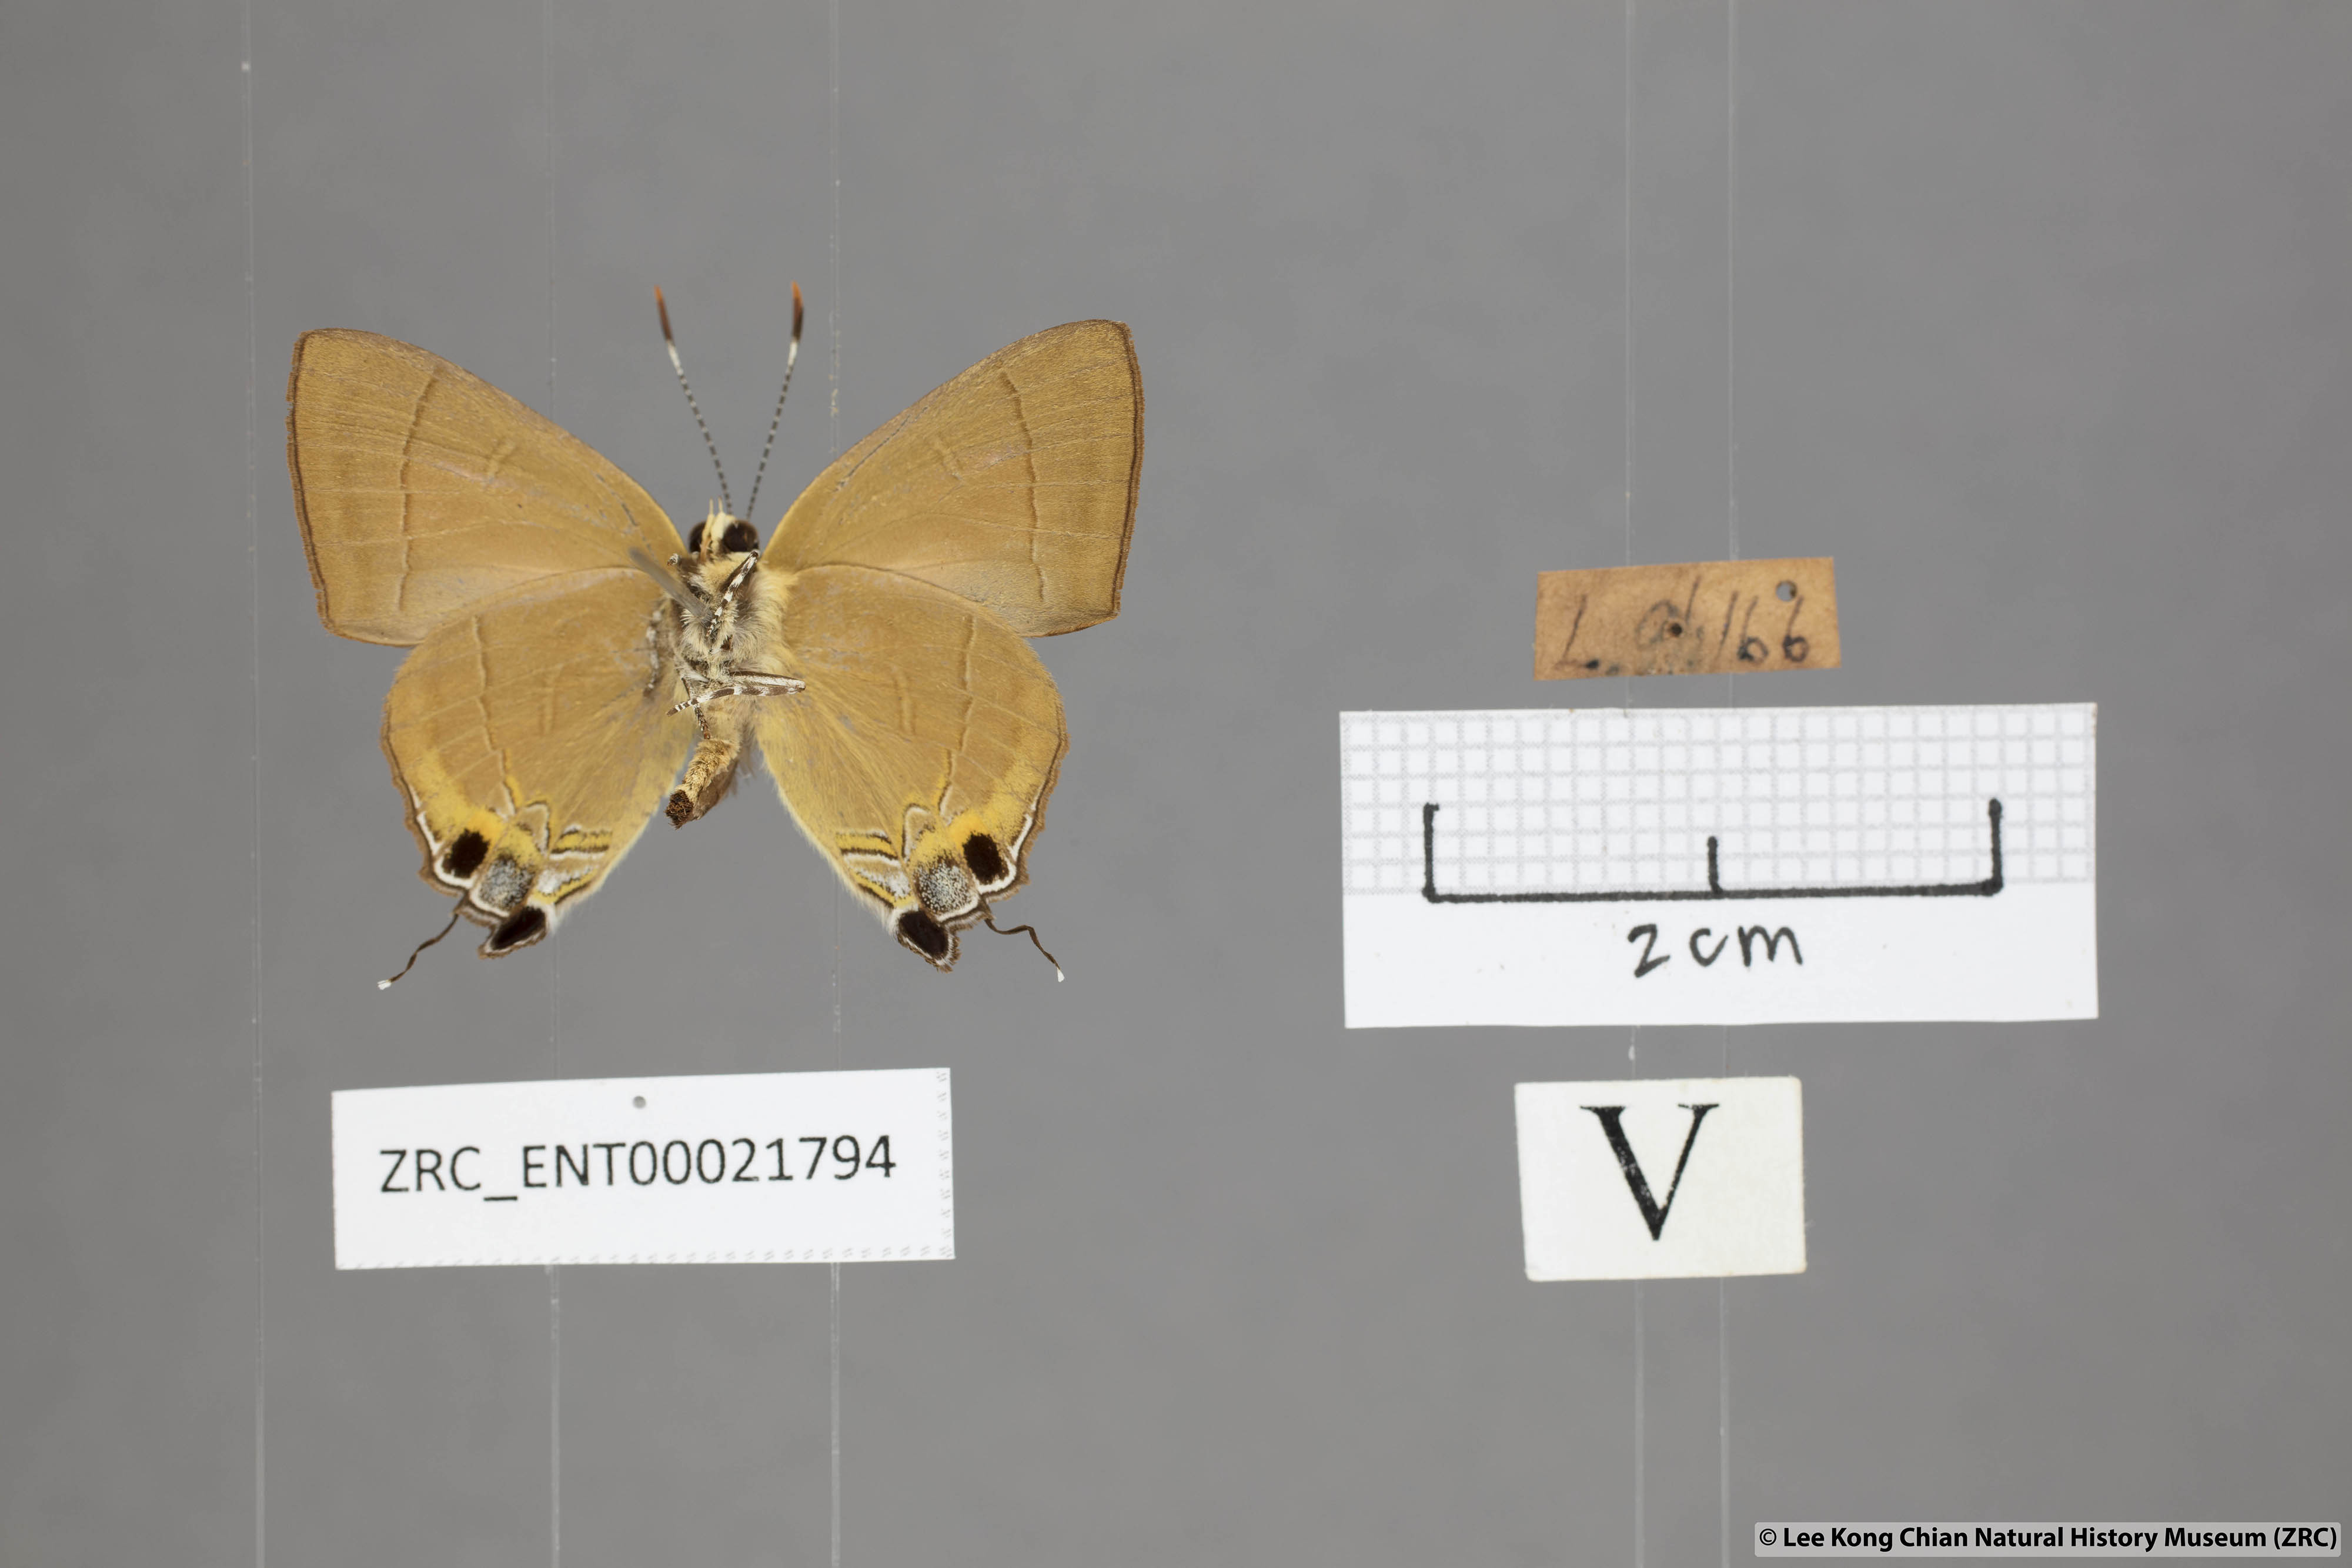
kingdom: Animalia
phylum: Arthropoda
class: Insecta
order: Lepidoptera
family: Lycaenidae
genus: Rapala
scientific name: Rapala dieneces
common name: Scarlet flash
